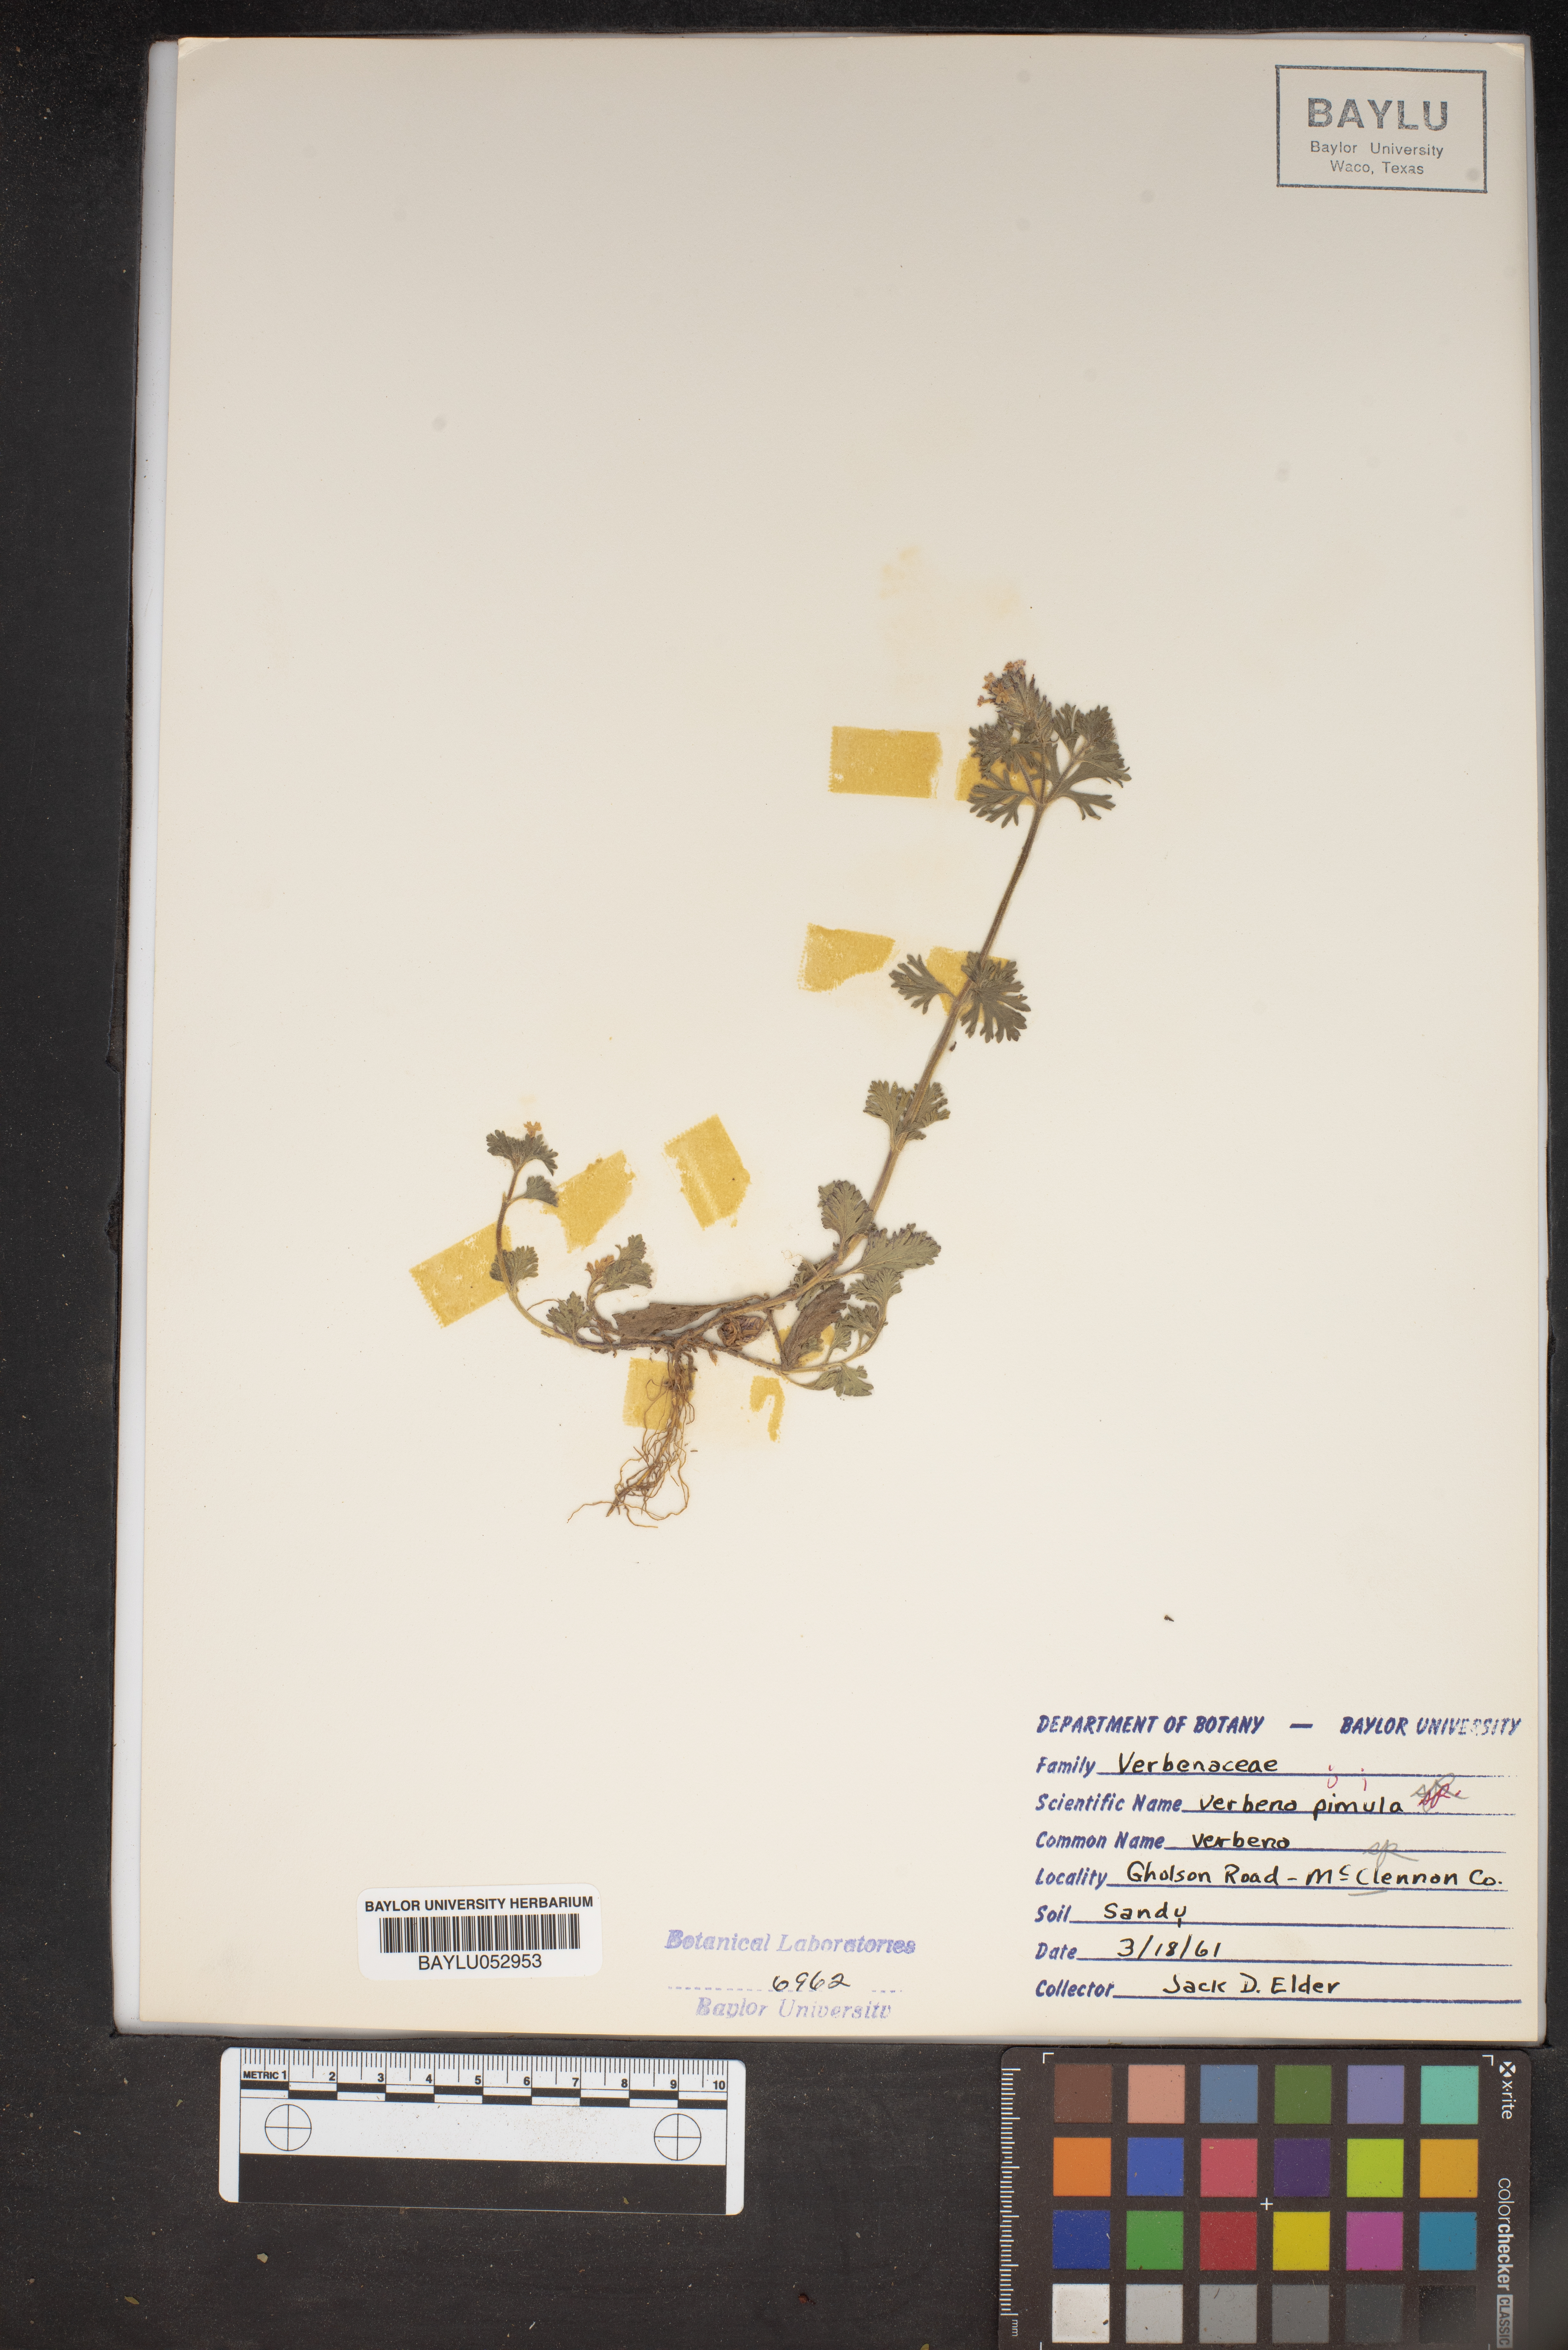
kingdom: Plantae
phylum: Tracheophyta
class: Magnoliopsida
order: Lamiales
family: Verbenaceae
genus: Verbena
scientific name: Verbena pumila
